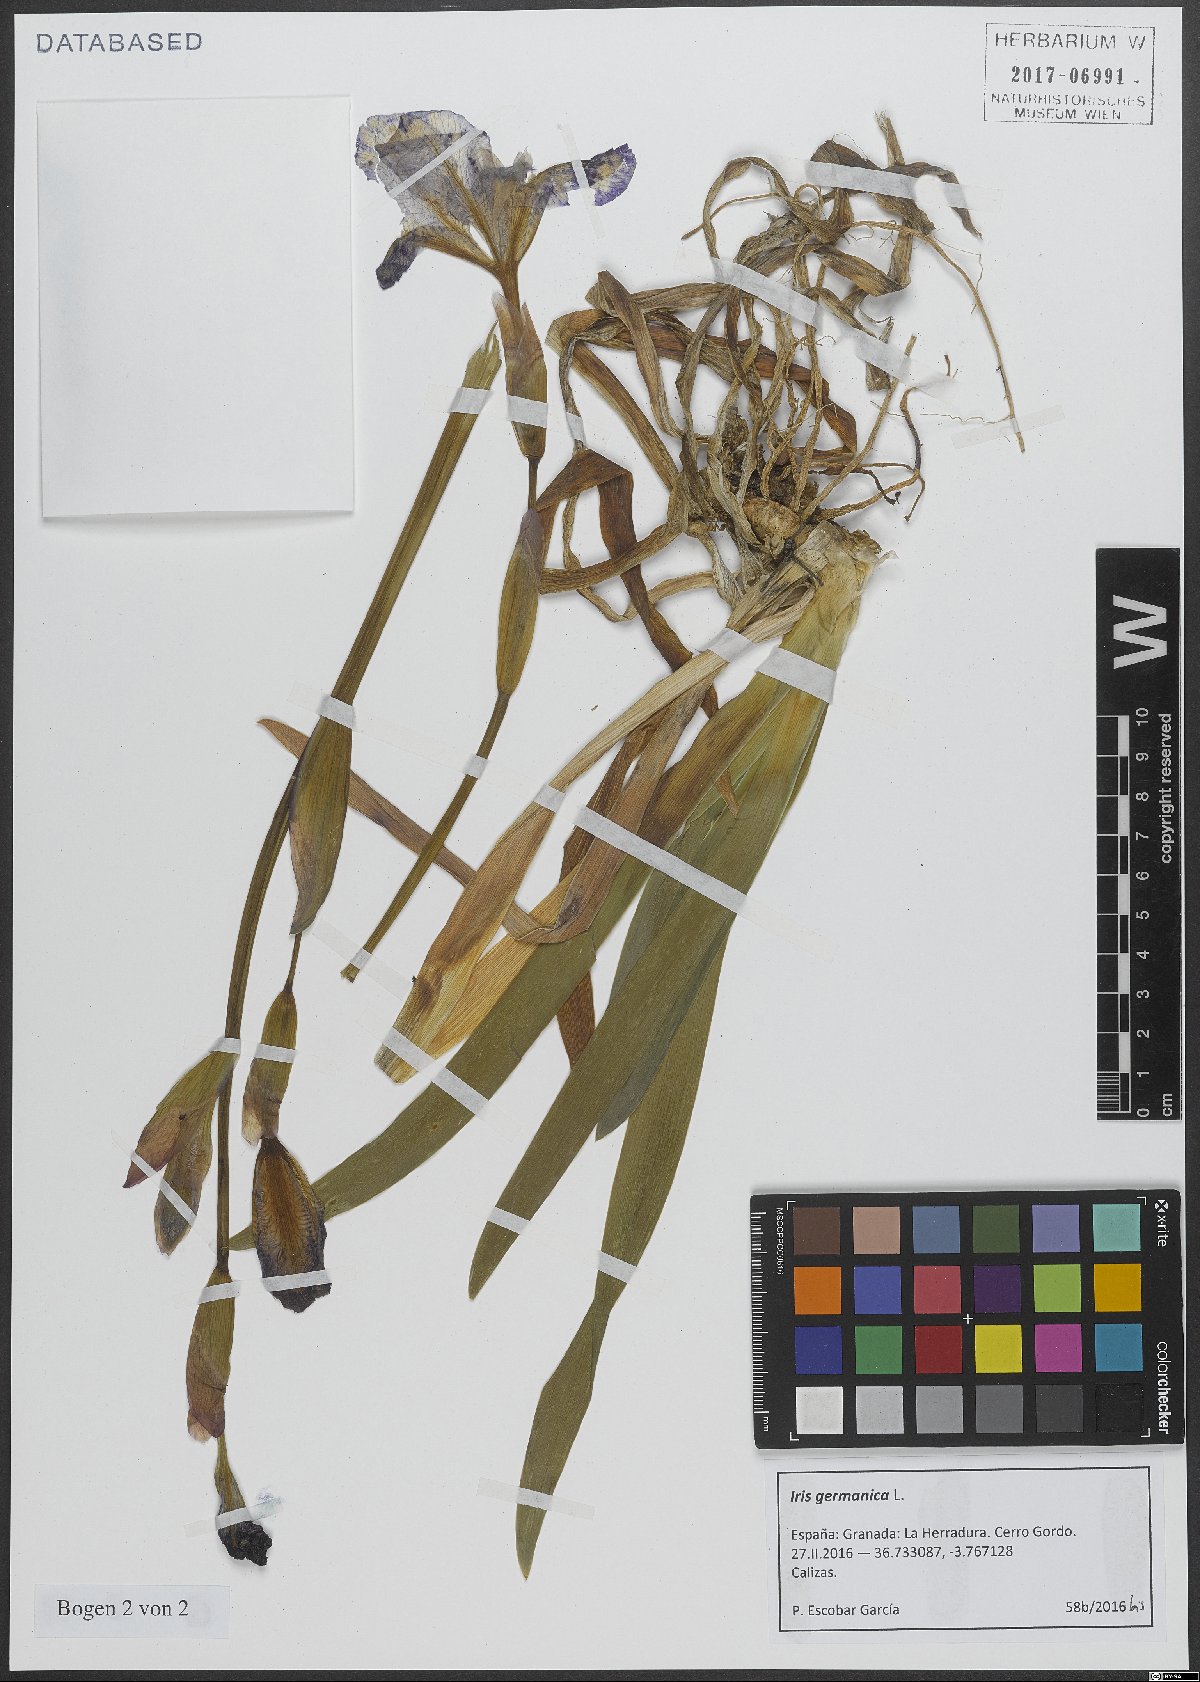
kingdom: Plantae
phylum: Tracheophyta
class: Liliopsida
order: Asparagales
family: Iridaceae
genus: Iris
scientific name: Iris germanica
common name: German iris
